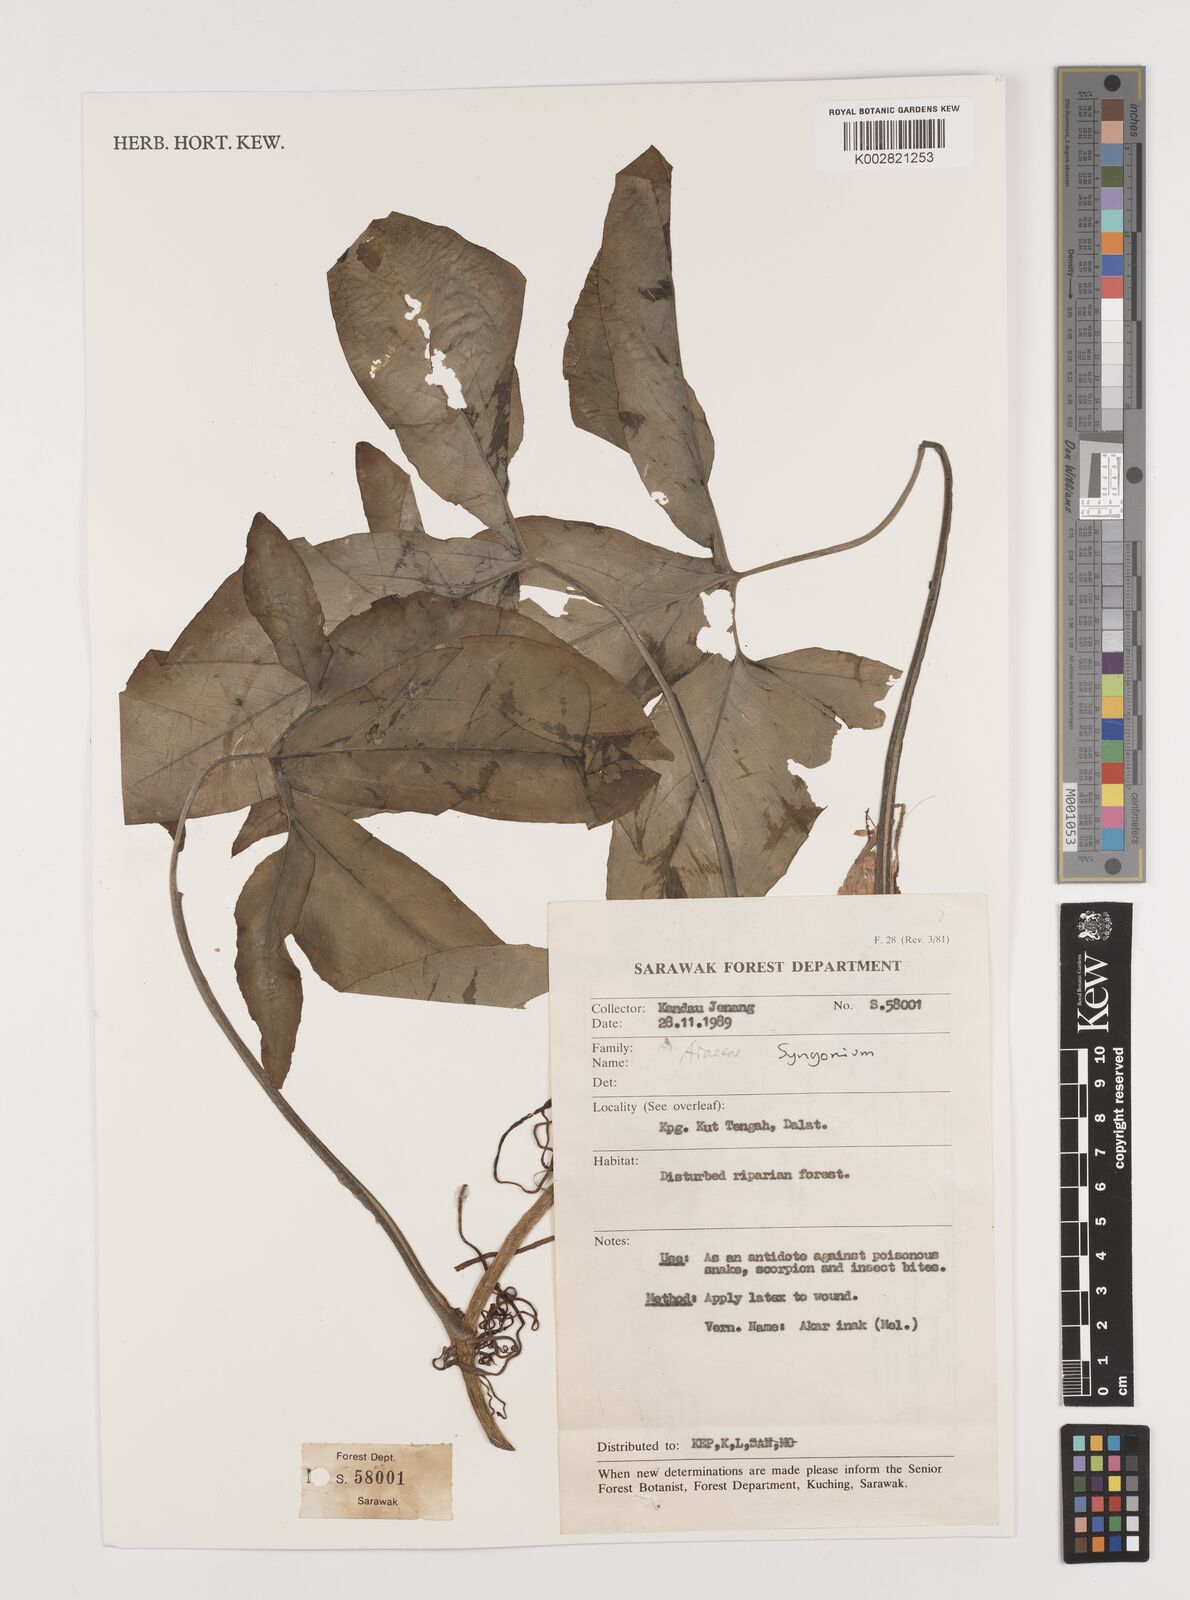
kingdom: Plantae
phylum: Tracheophyta
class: Liliopsida
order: Alismatales
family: Araceae
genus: Syngonium
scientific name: Syngonium podophyllum
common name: American evergreen
